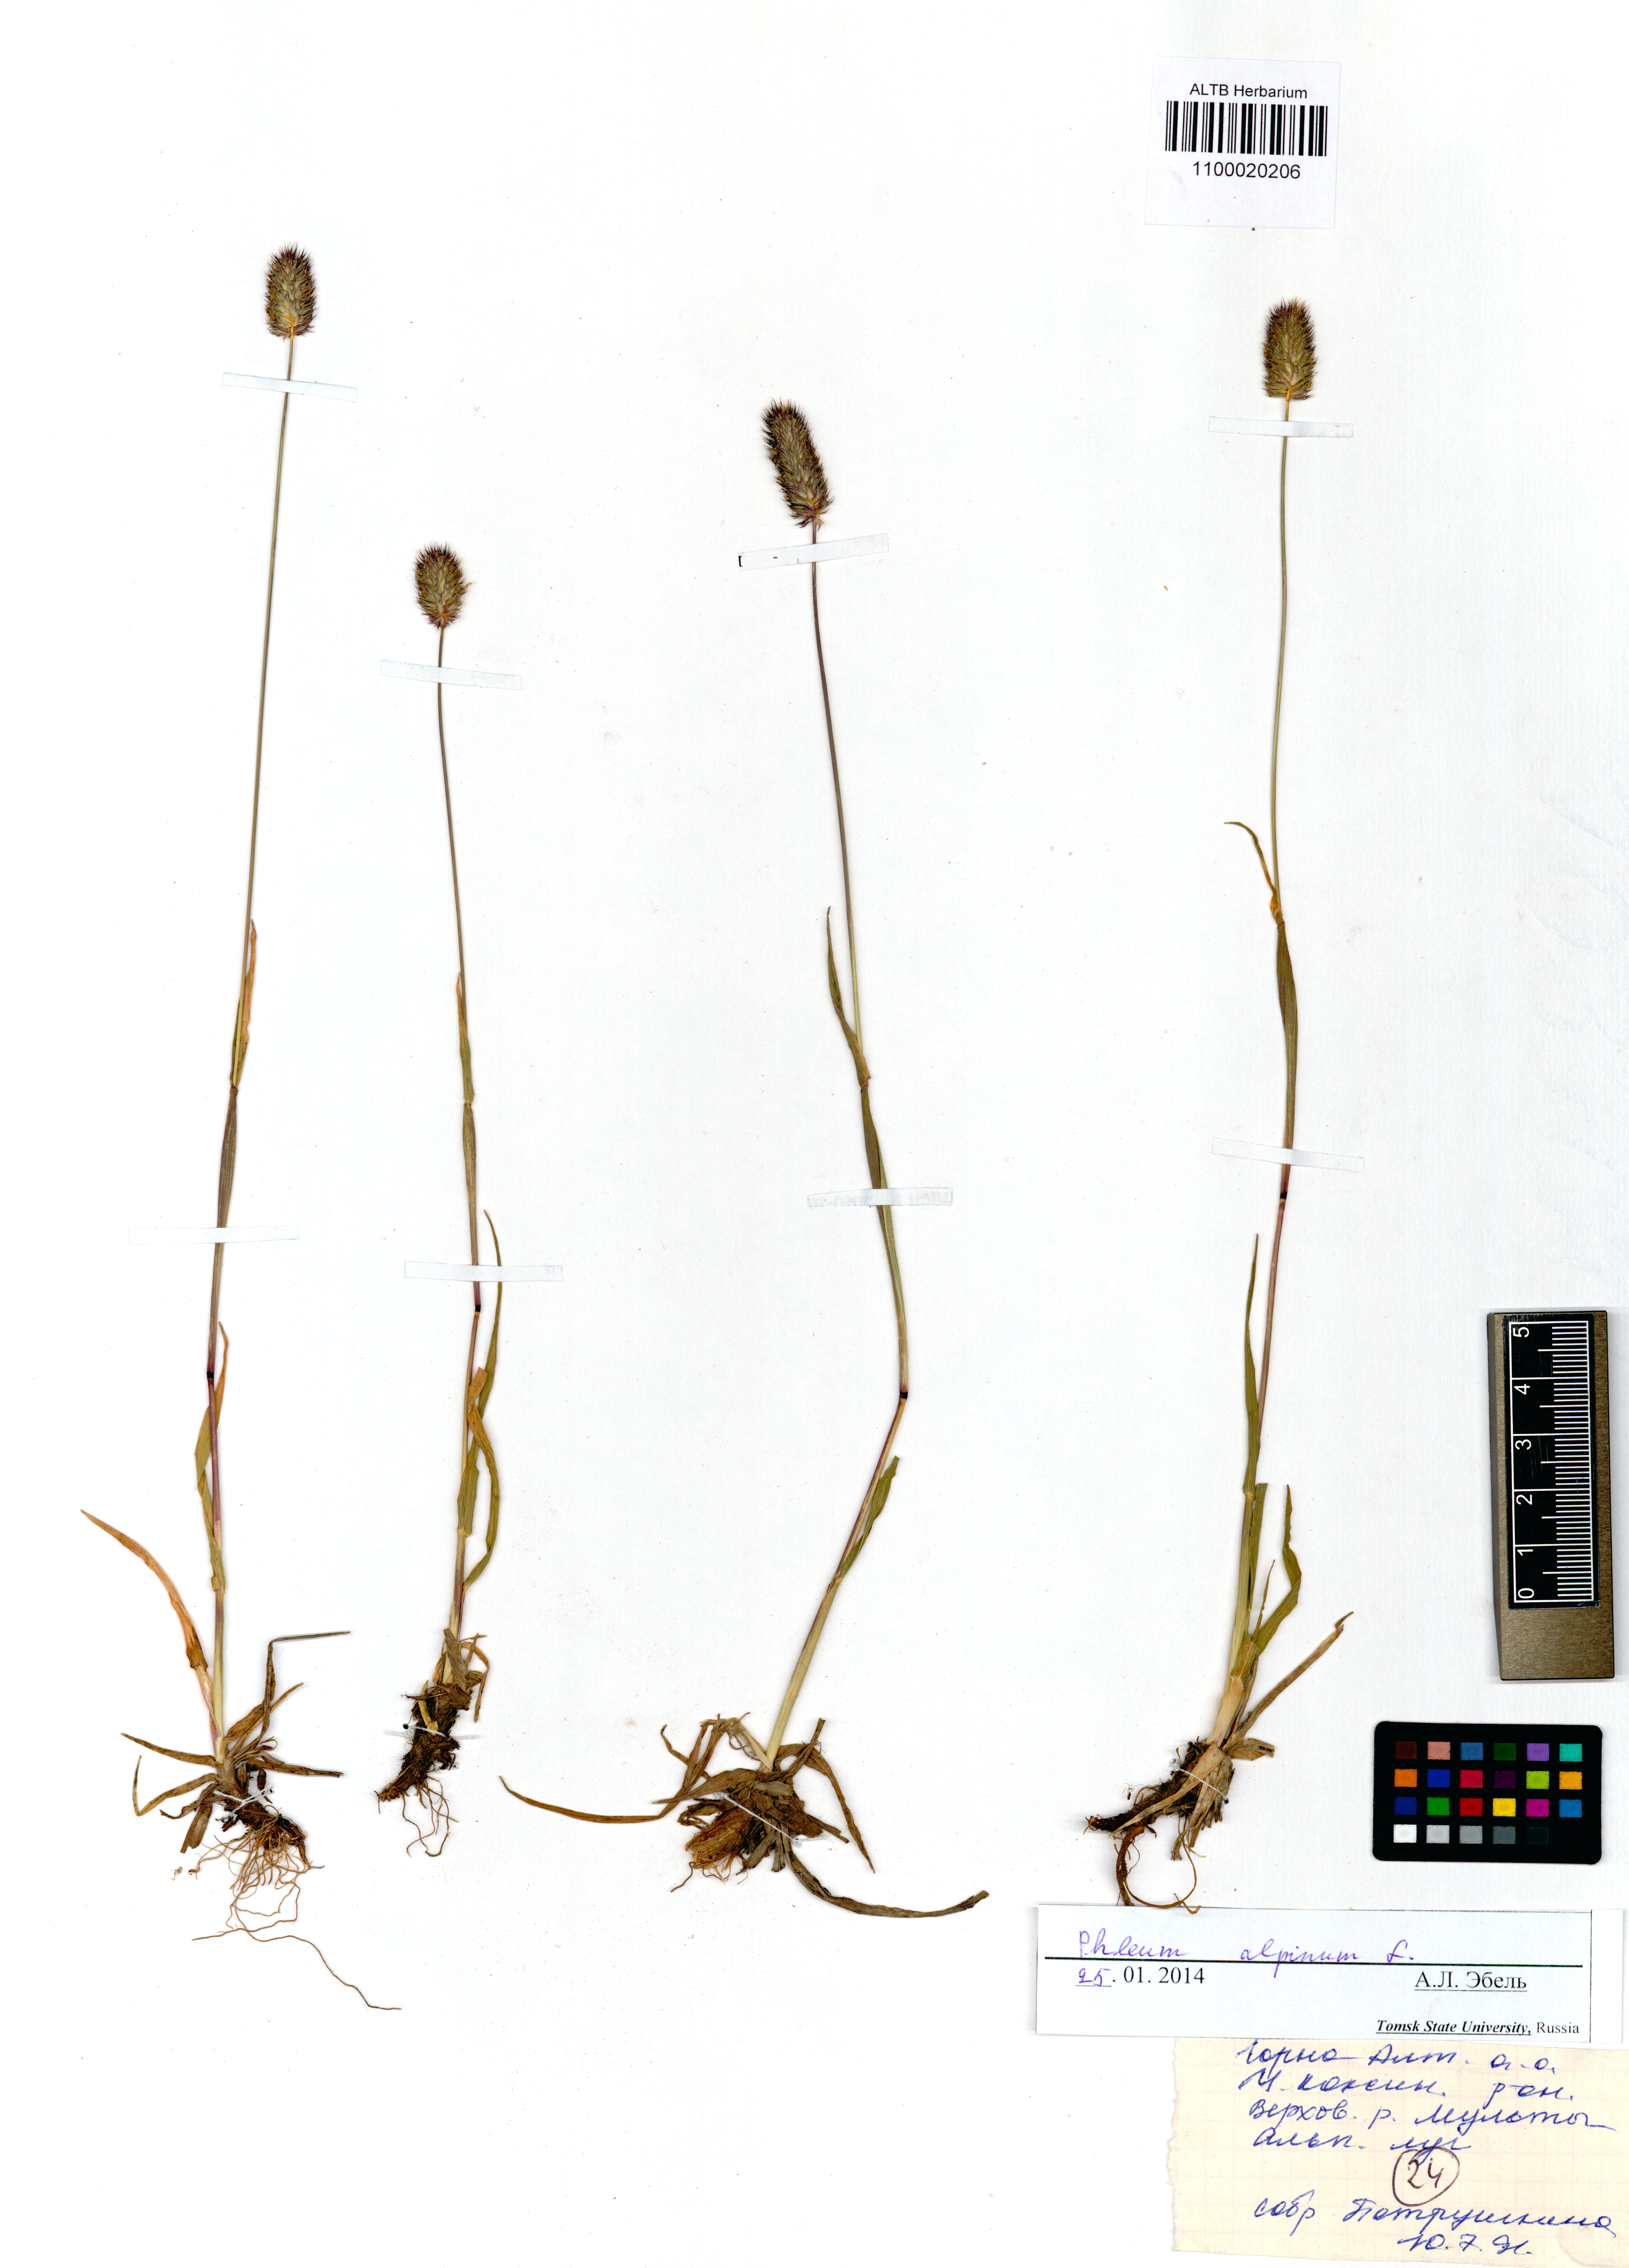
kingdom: Plantae
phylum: Tracheophyta
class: Liliopsida
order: Poales
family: Poaceae
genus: Phleum
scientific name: Phleum alpinum
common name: Alpine cat's-tail
